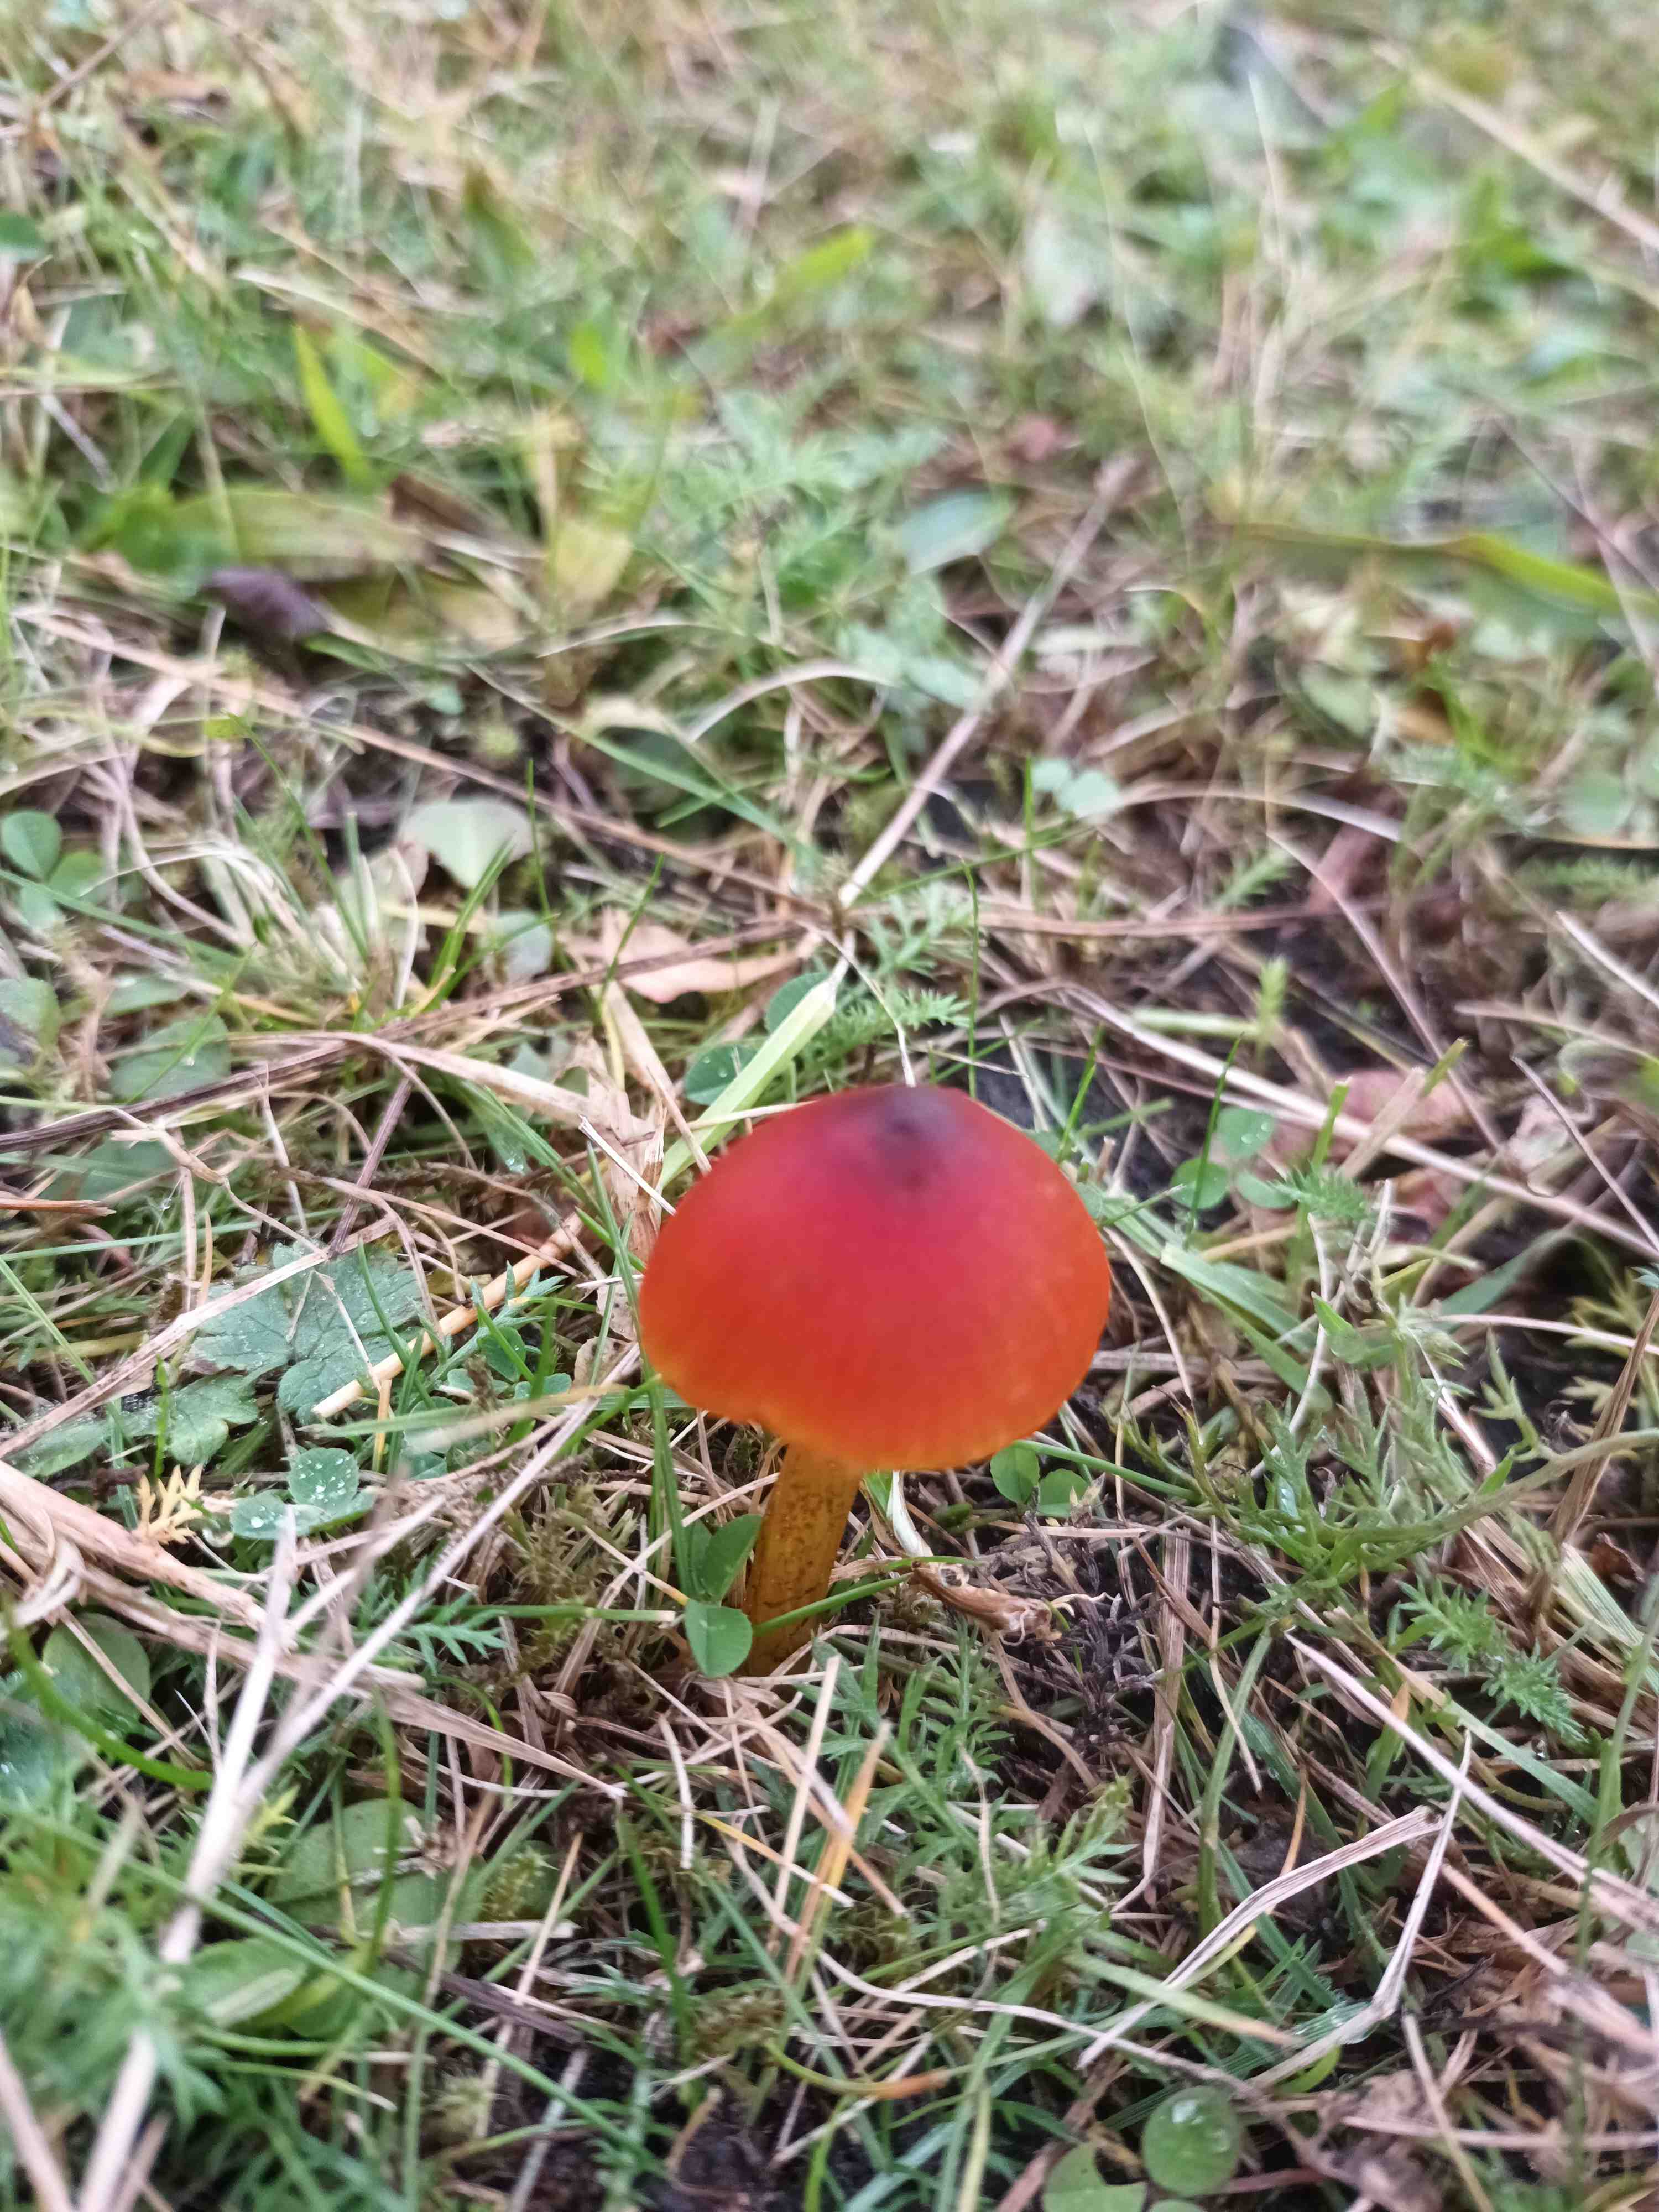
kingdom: Fungi
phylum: Basidiomycota
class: Agaricomycetes
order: Agaricales
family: Hygrophoraceae
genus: Hygrocybe
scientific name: Hygrocybe conica
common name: kegle-vokshat
